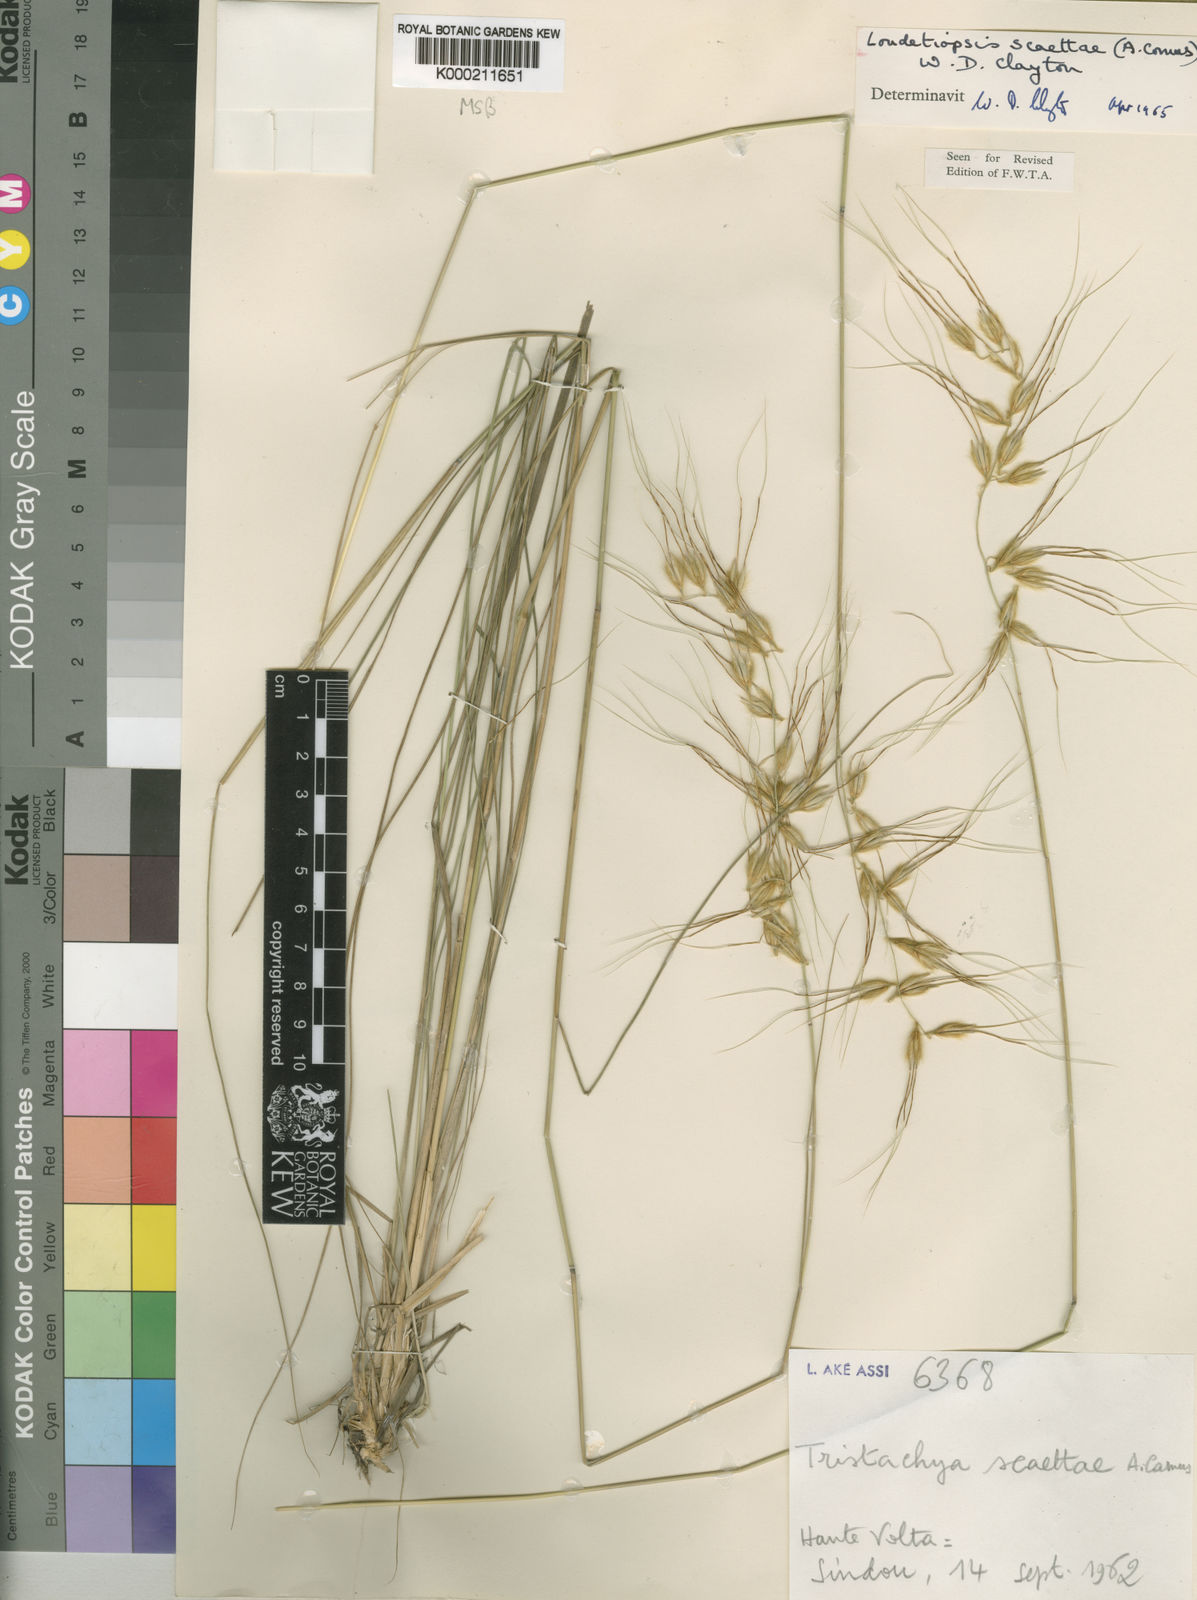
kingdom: Plantae
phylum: Tracheophyta
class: Liliopsida
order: Poales
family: Poaceae
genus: Loudetiopsis
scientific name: Loudetiopsis scaettae
